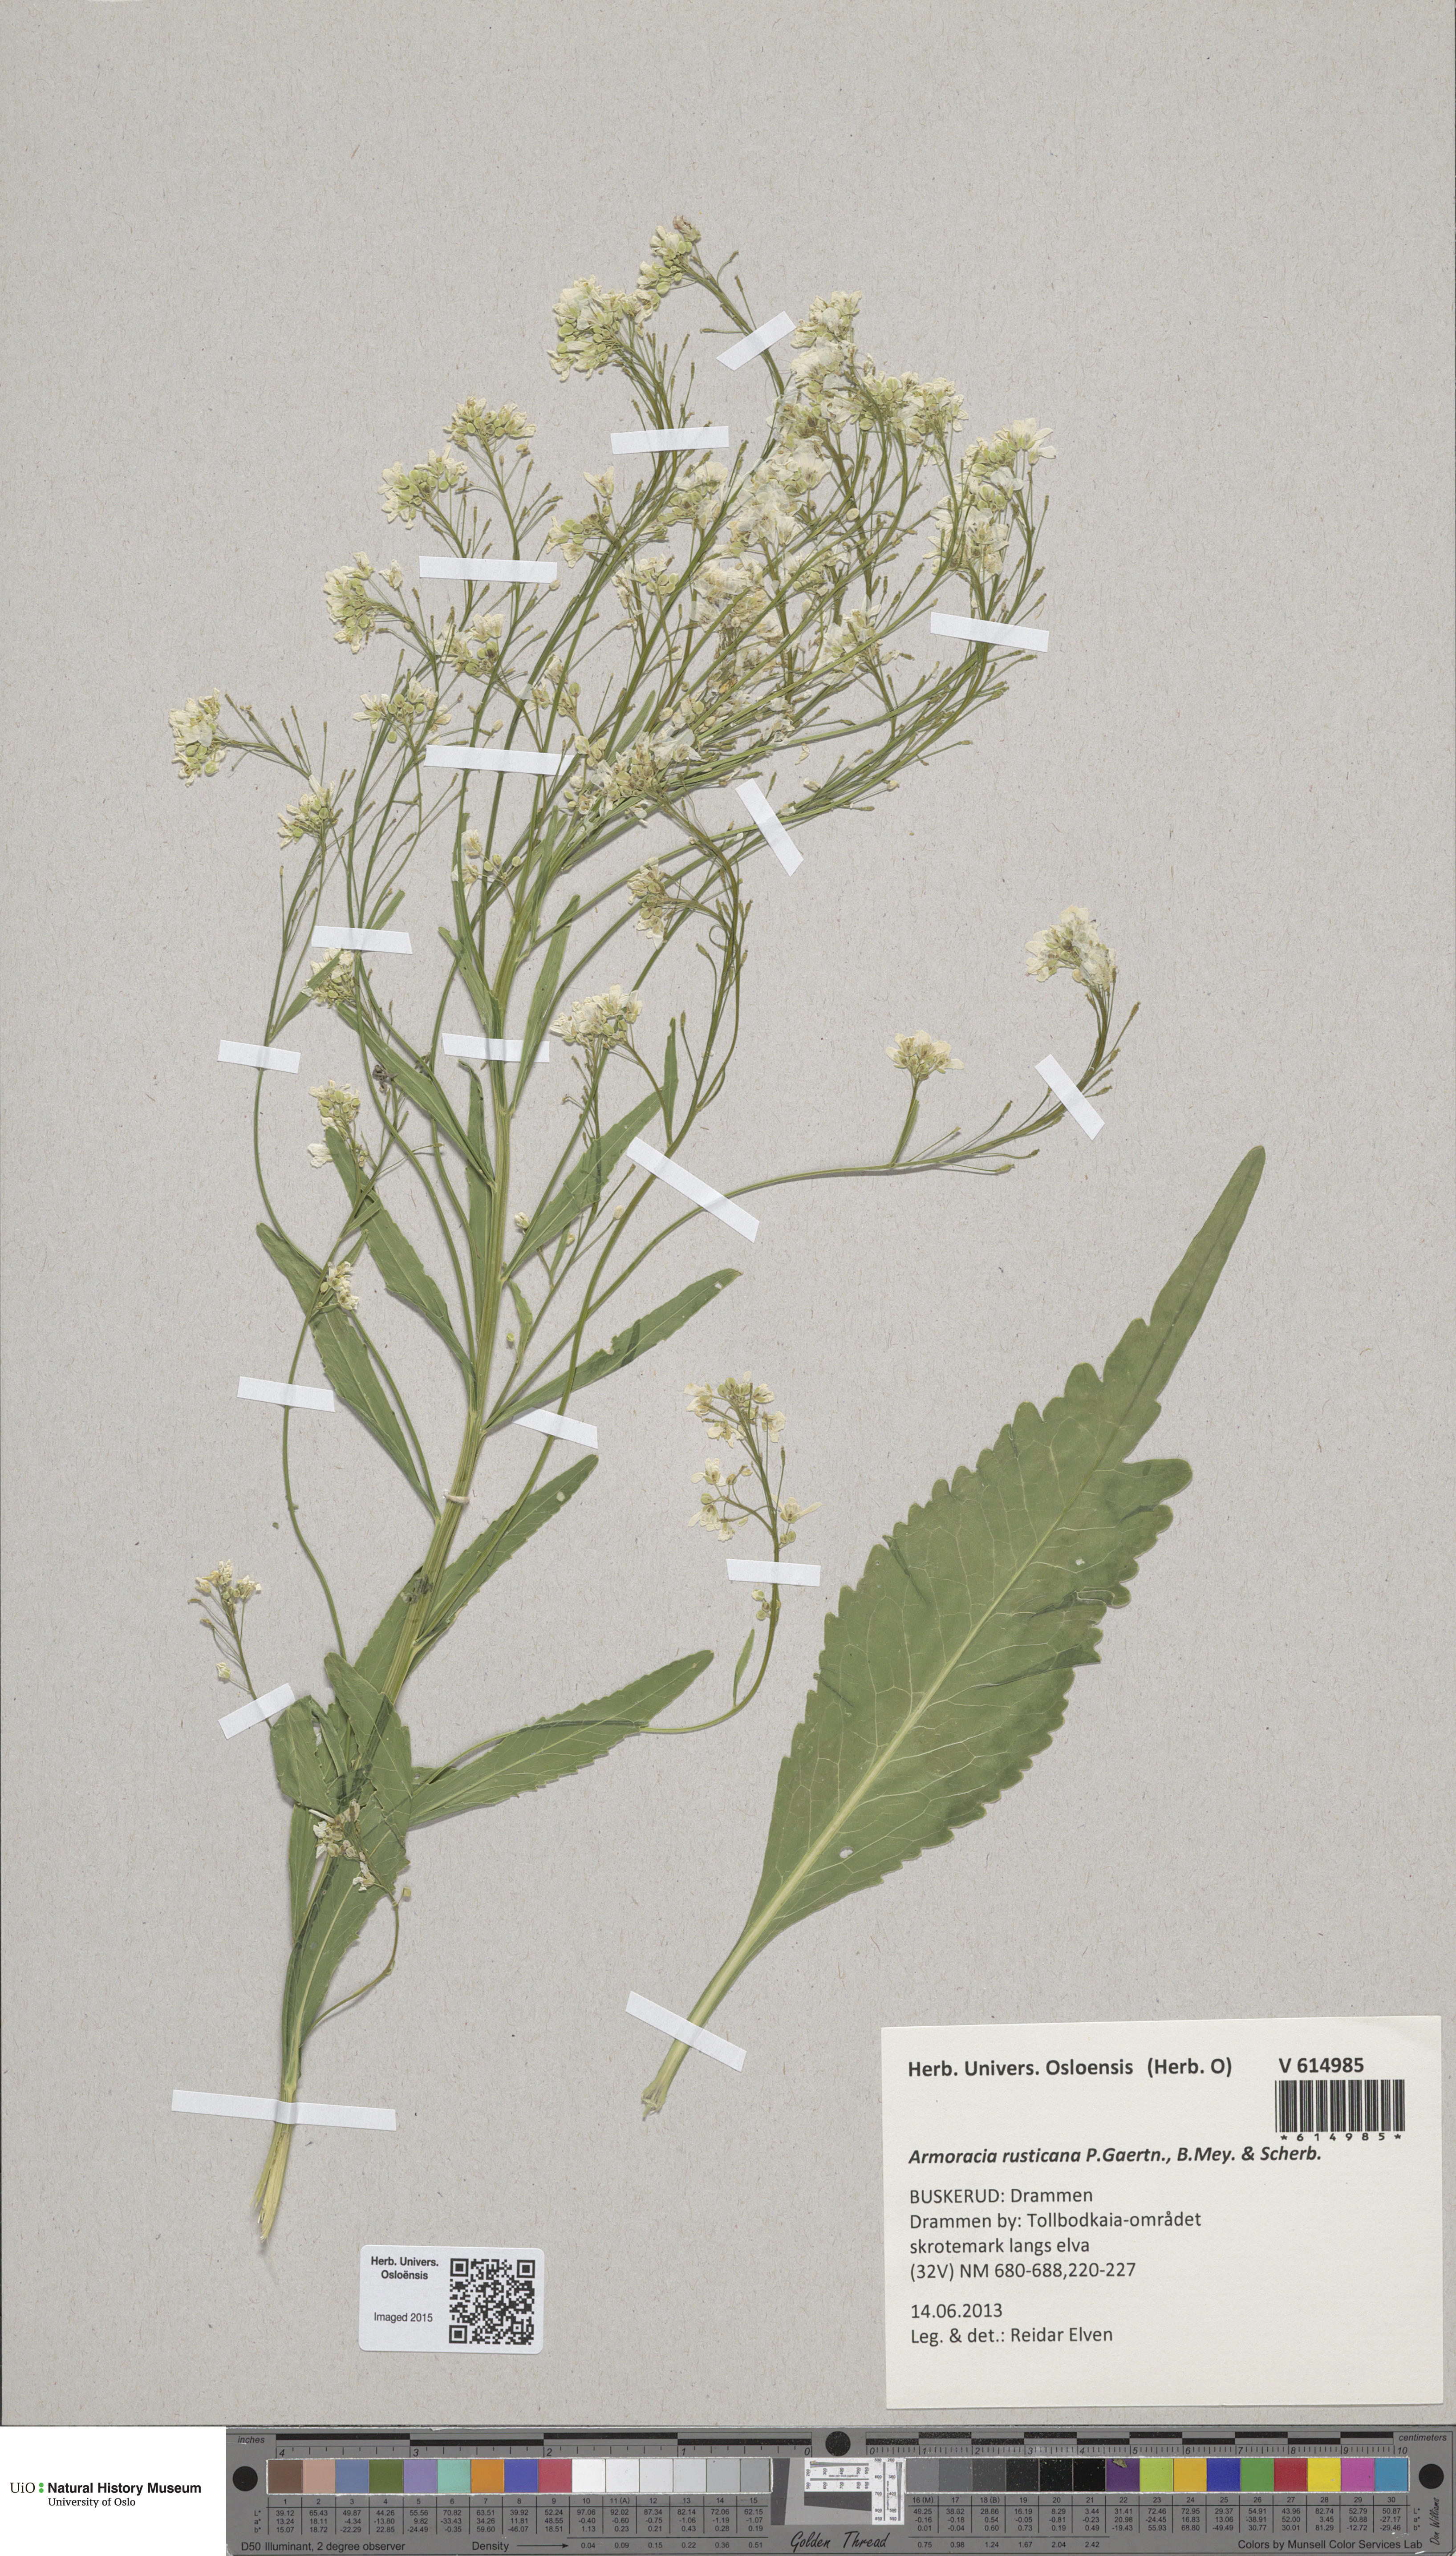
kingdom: Plantae
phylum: Tracheophyta
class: Magnoliopsida
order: Brassicales
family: Brassicaceae
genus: Armoracia
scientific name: Armoracia rusticana
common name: Horseradish
